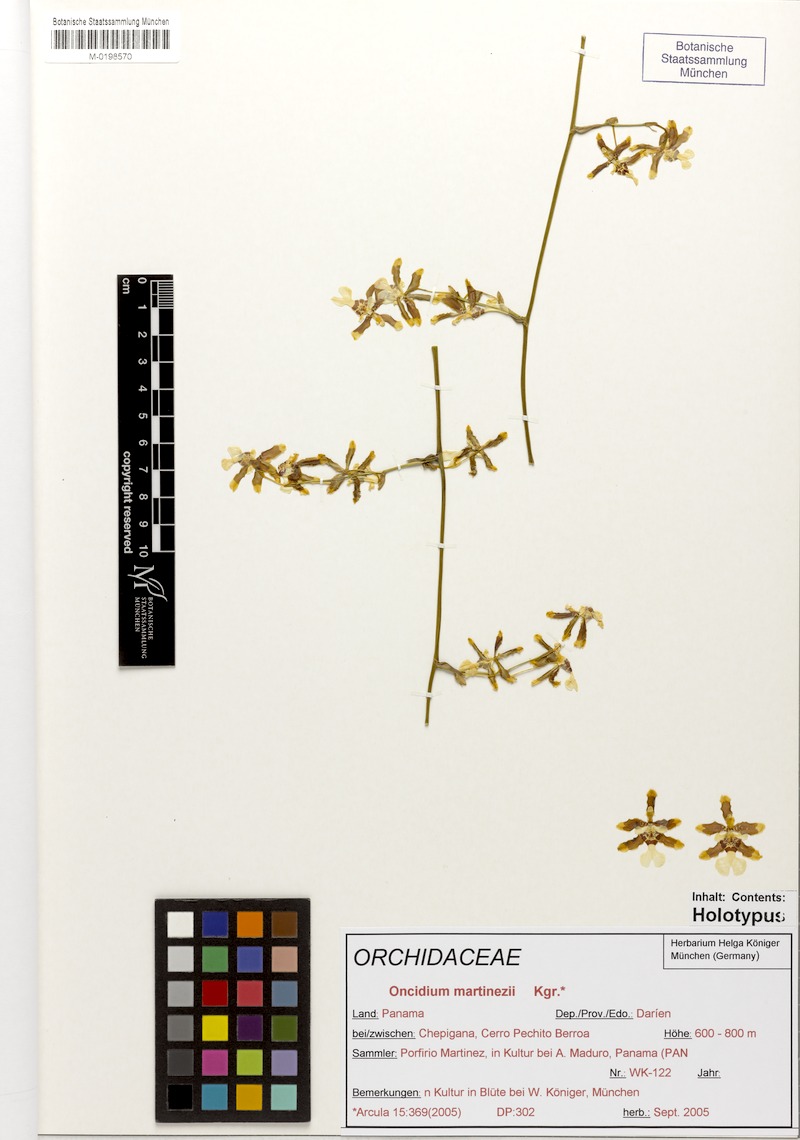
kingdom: Plantae
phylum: Tracheophyta
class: Liliopsida
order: Asparagales
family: Orchidaceae
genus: Oncidium
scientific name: Oncidium martinezii
